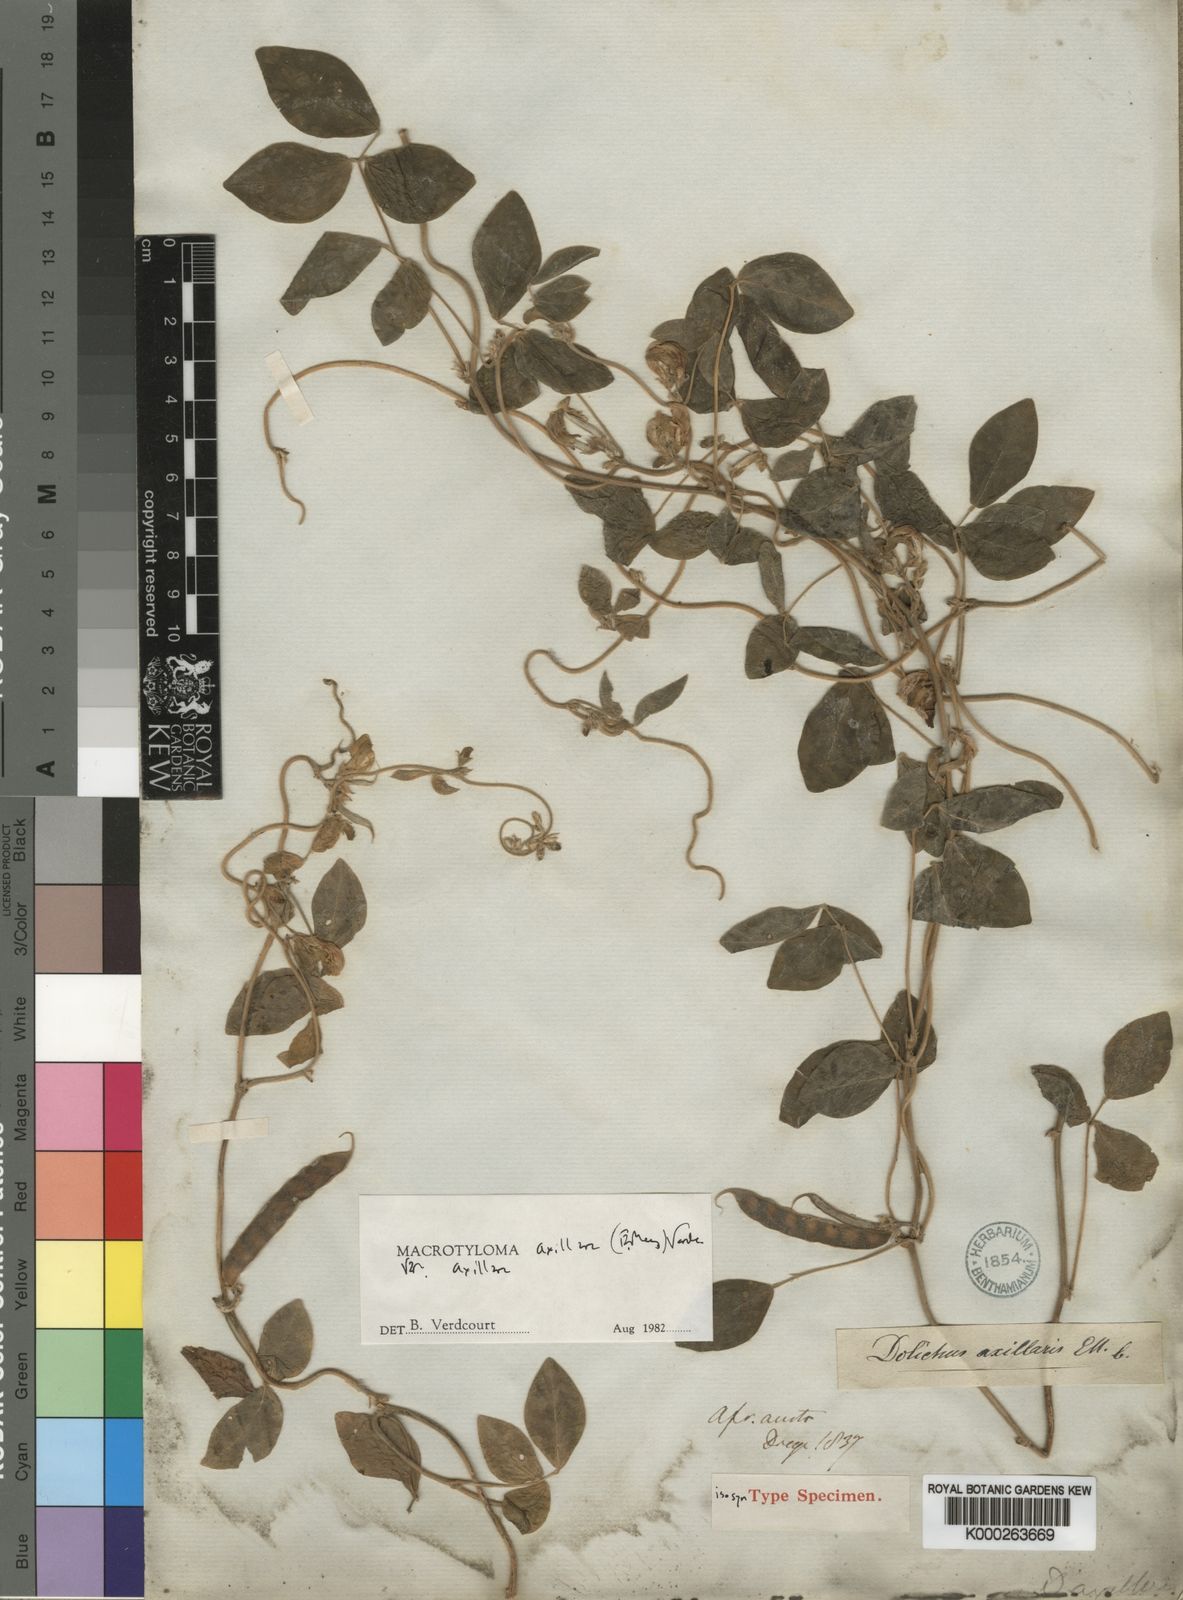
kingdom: Plantae
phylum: Tracheophyta
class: Magnoliopsida
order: Fabales
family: Fabaceae
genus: Macrotyloma
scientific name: Macrotyloma axillare
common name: Perennial horsegram
